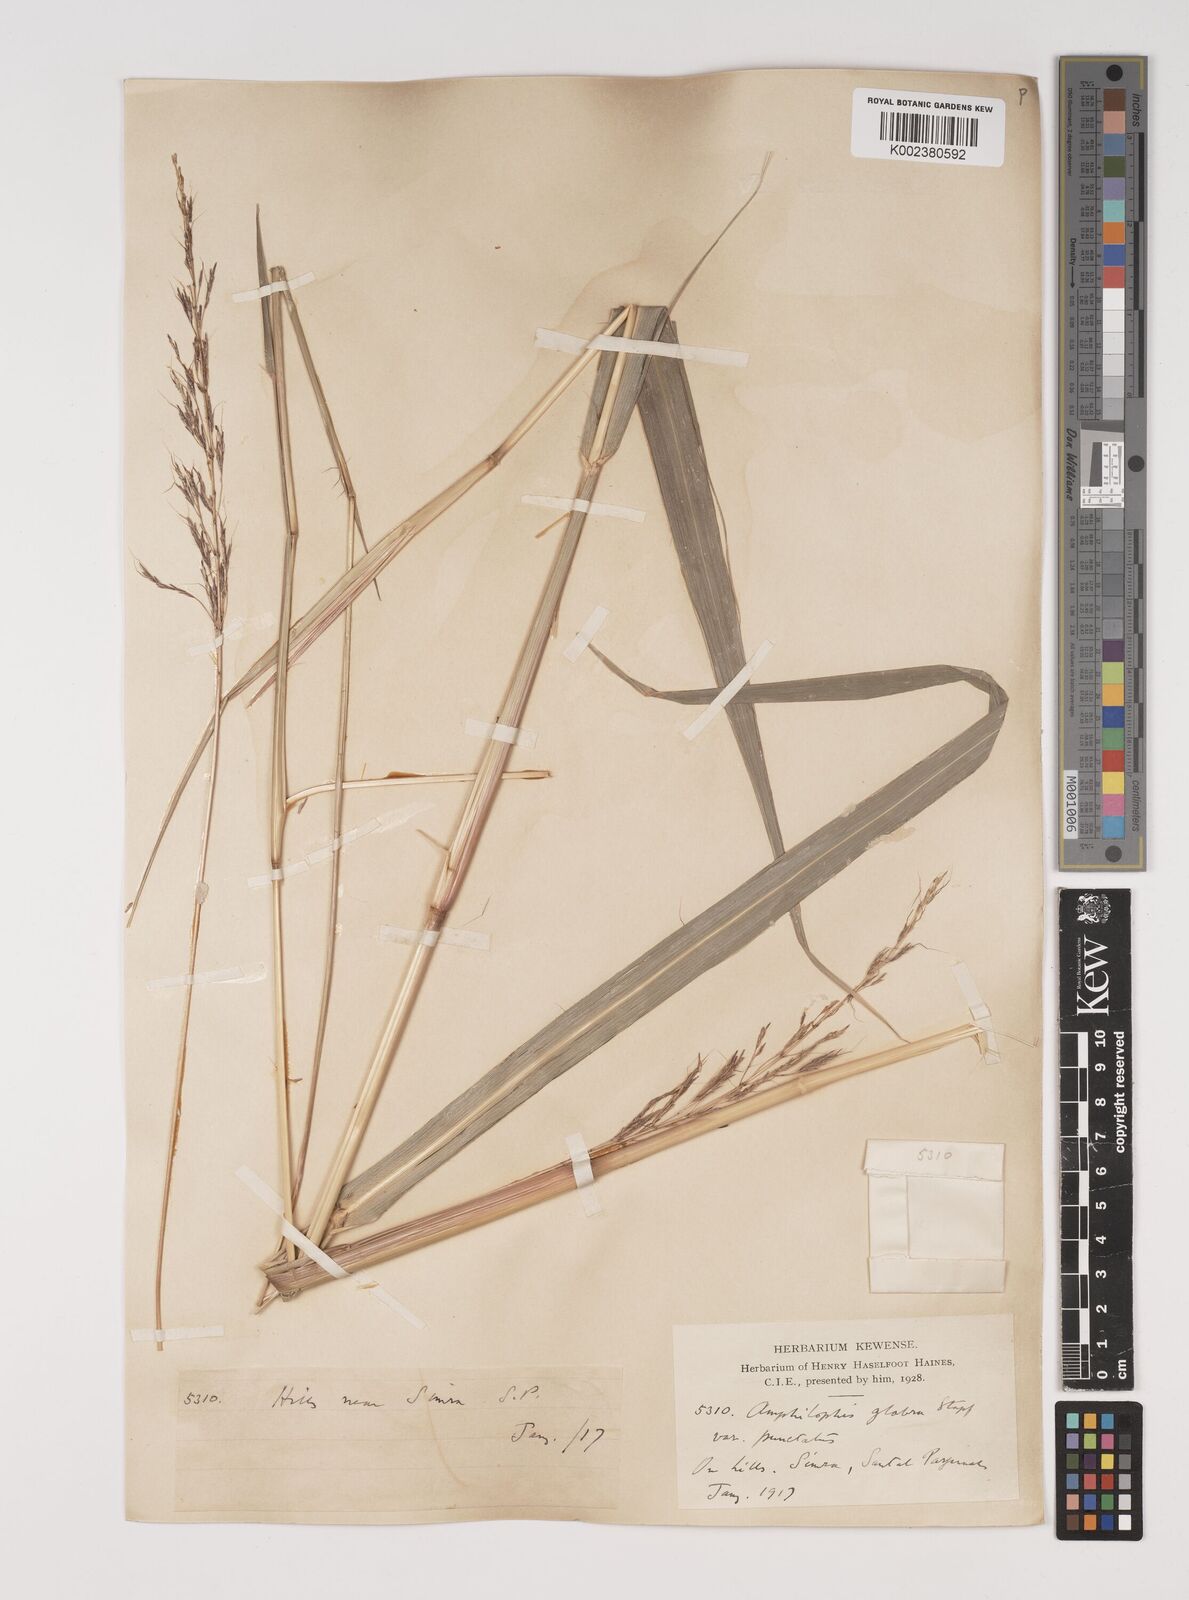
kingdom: Plantae
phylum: Tracheophyta
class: Liliopsida
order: Poales
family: Poaceae
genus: Bothriochloa
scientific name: Bothriochloa bladhii
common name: Caucasian bluestem
